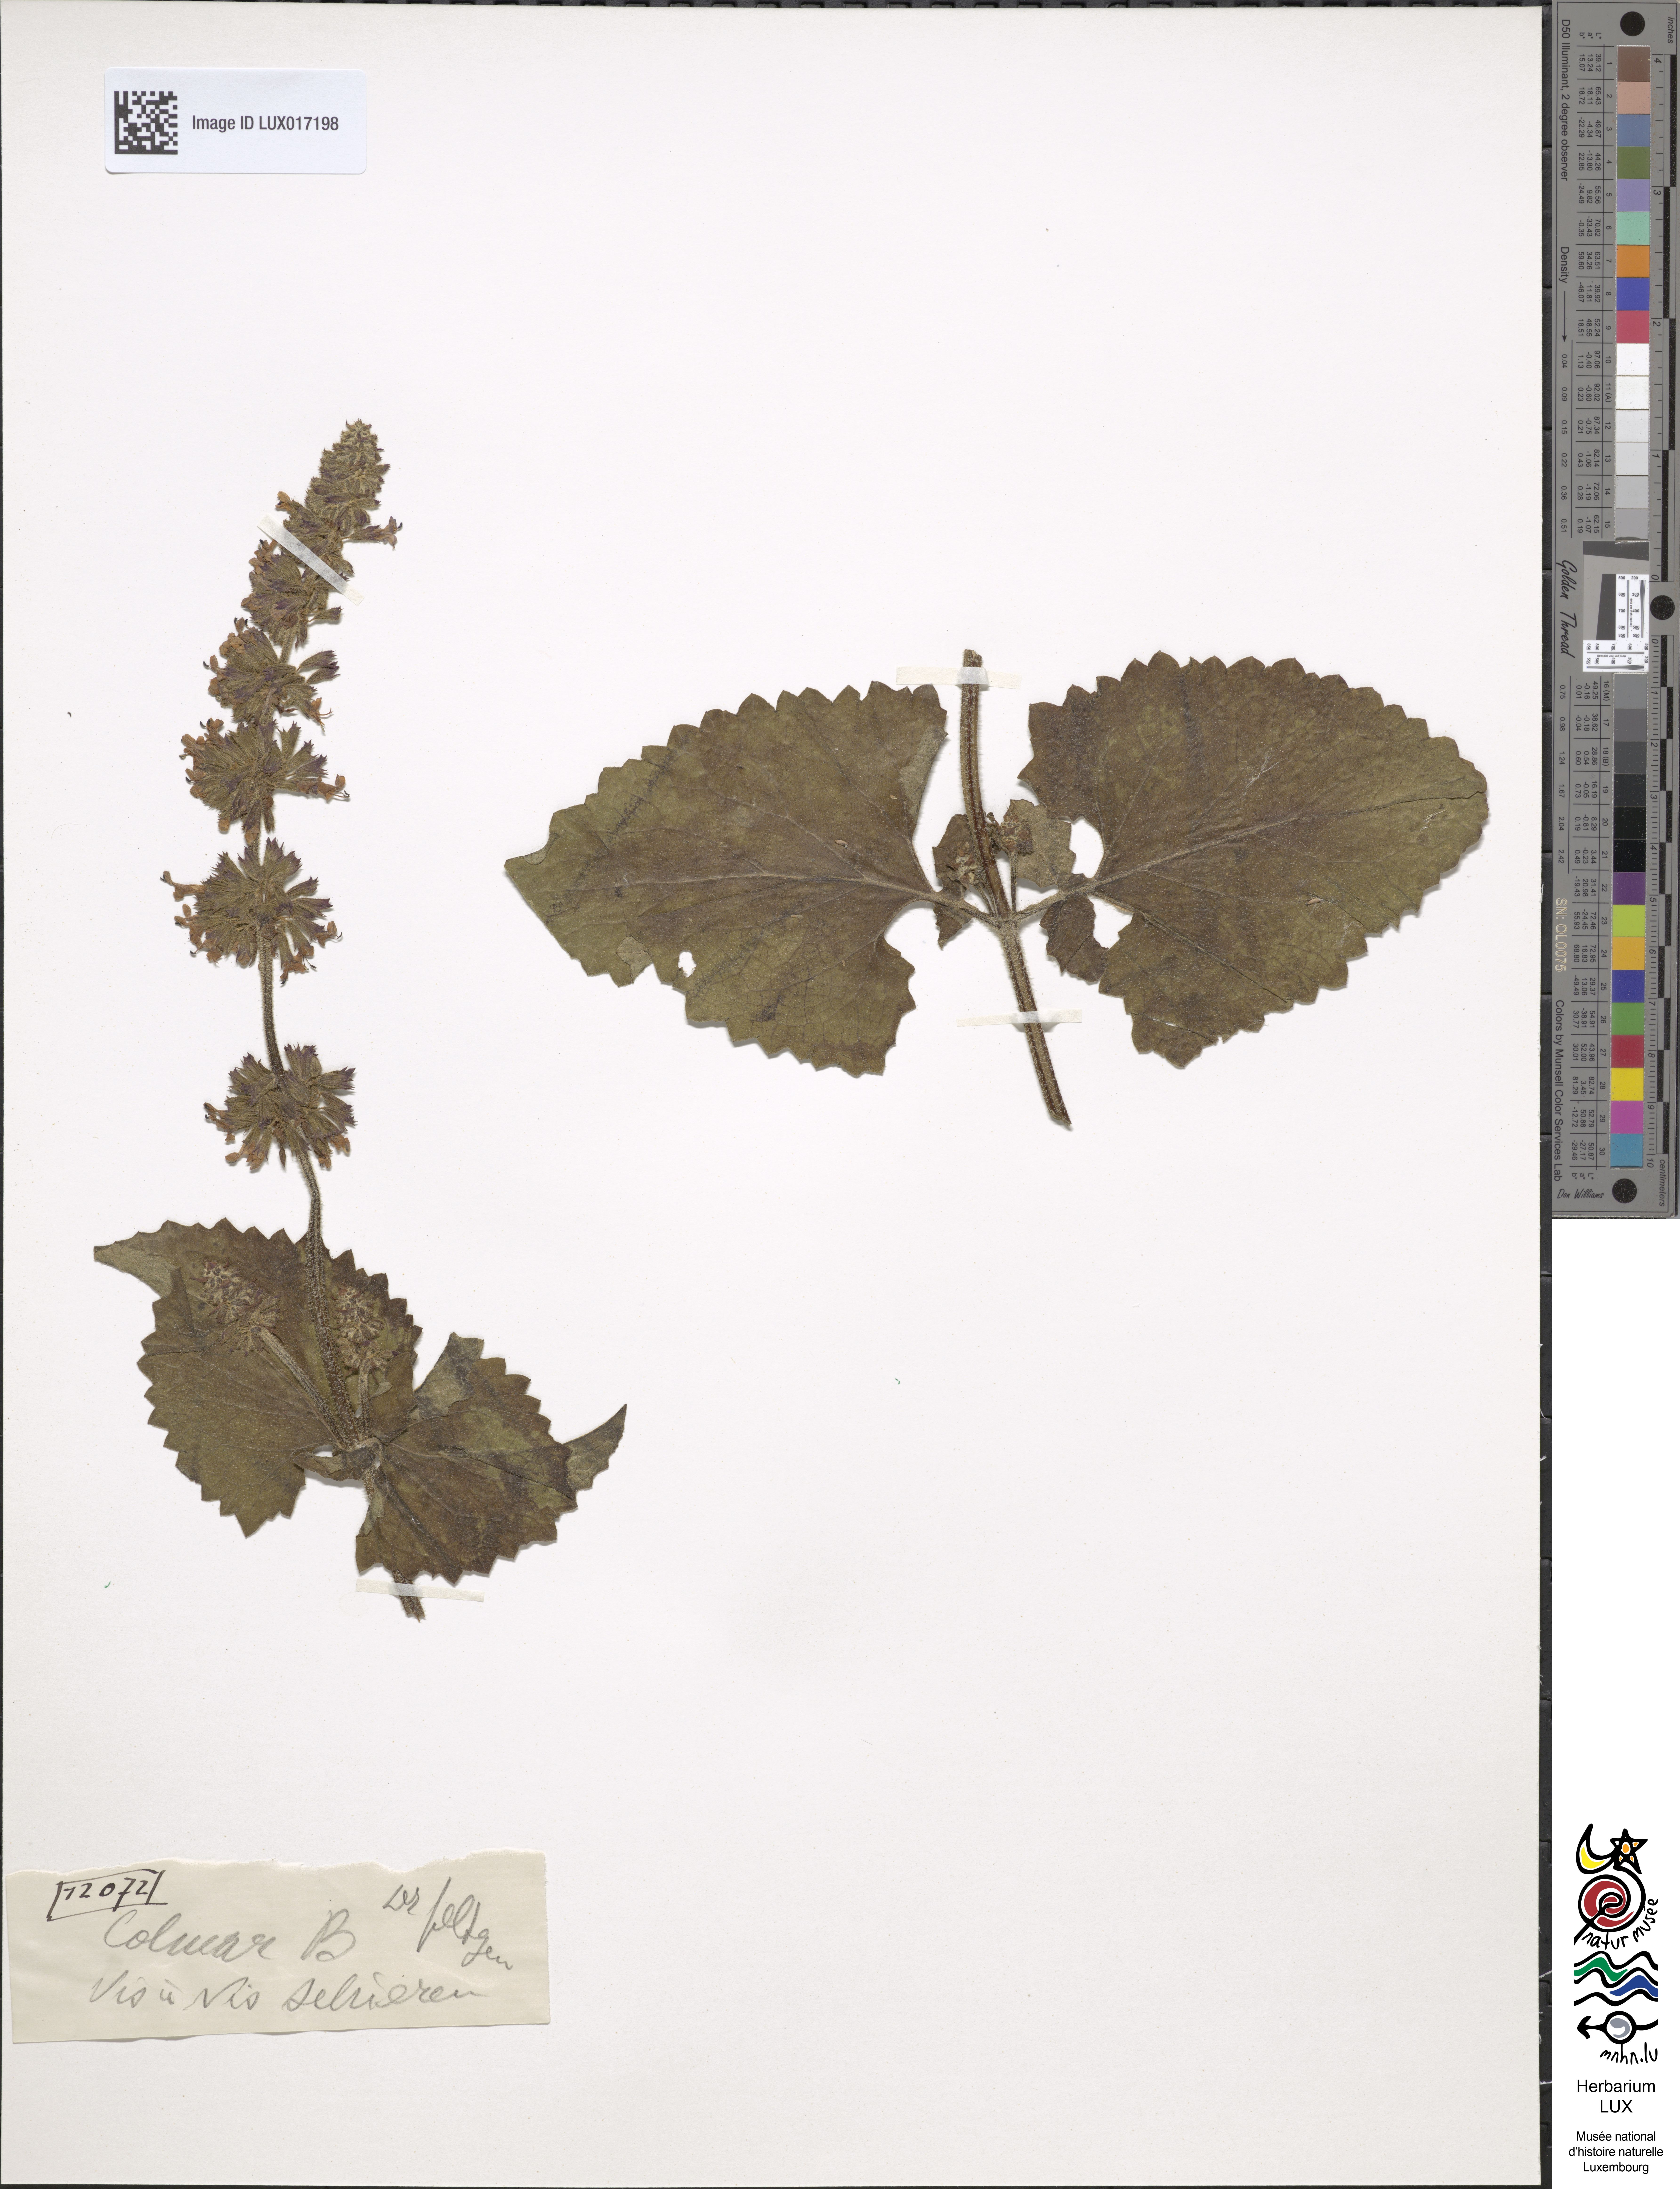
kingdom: Plantae
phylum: Tracheophyta
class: Magnoliopsida
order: Lamiales
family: Lamiaceae
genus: Salvia
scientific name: Salvia verticillata
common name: Whorled clary
